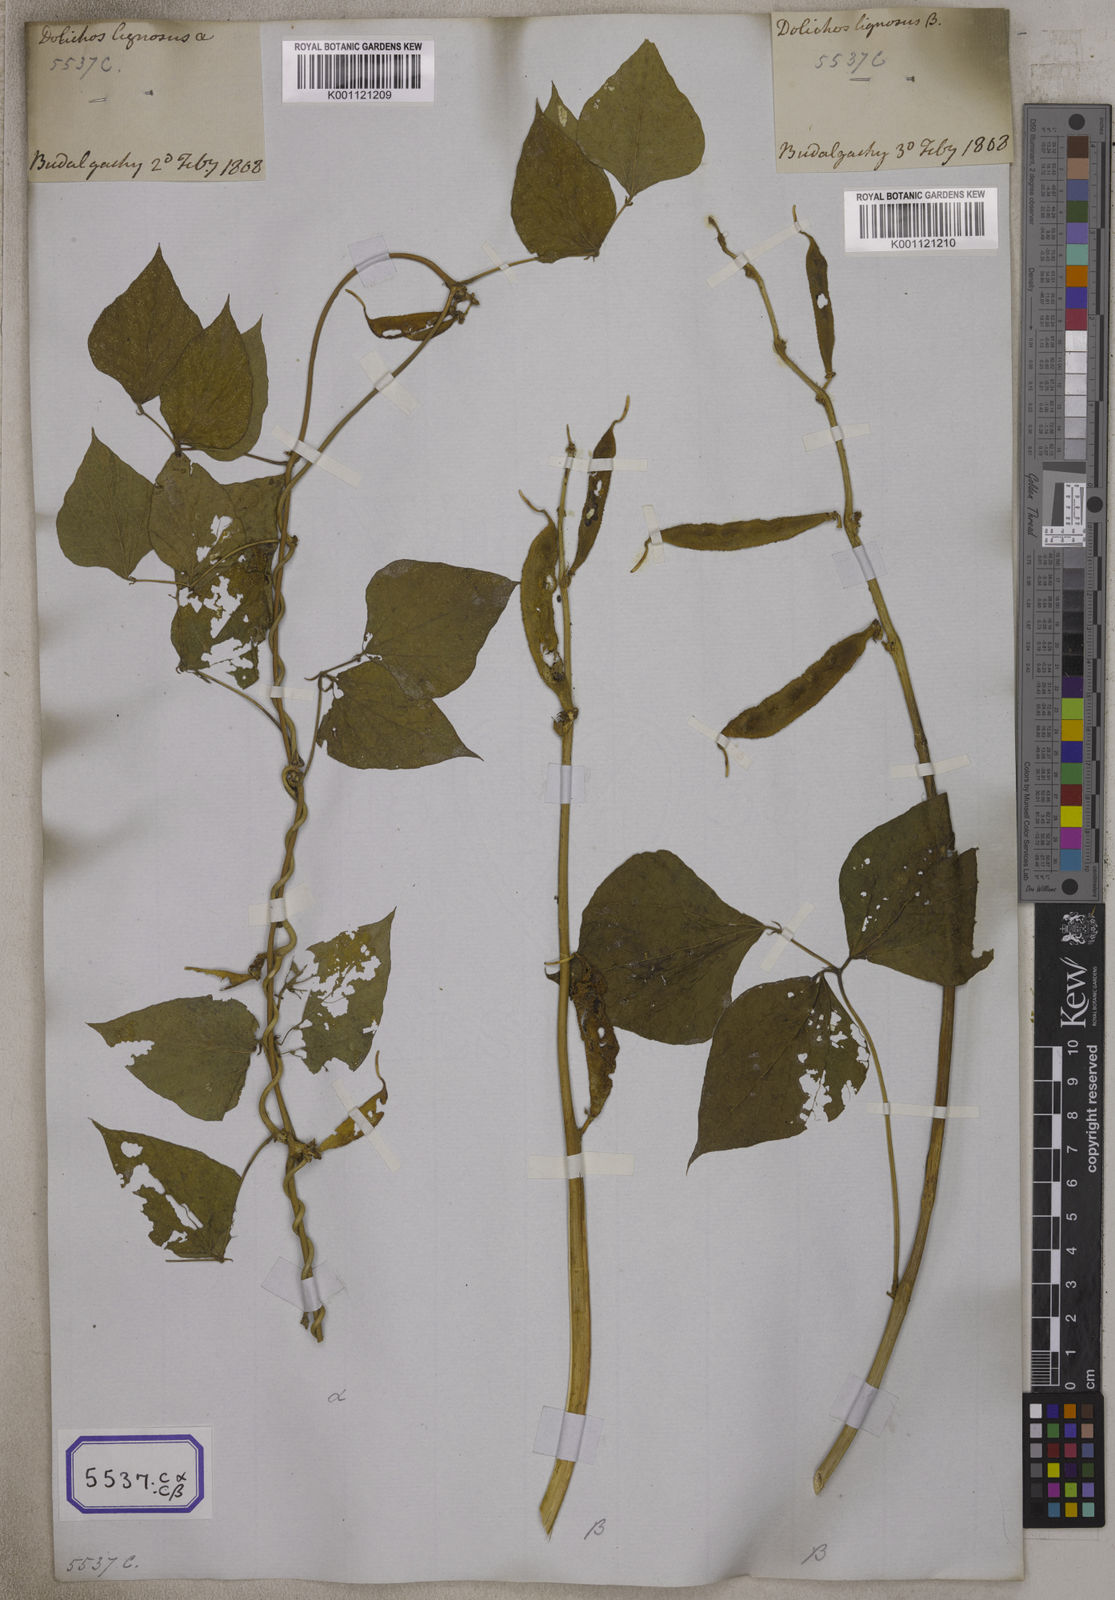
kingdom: Plantae
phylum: Tracheophyta
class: Magnoliopsida
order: Fabales
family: Fabaceae
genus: Lablab
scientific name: Lablab purpureus
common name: Lablab-bean
